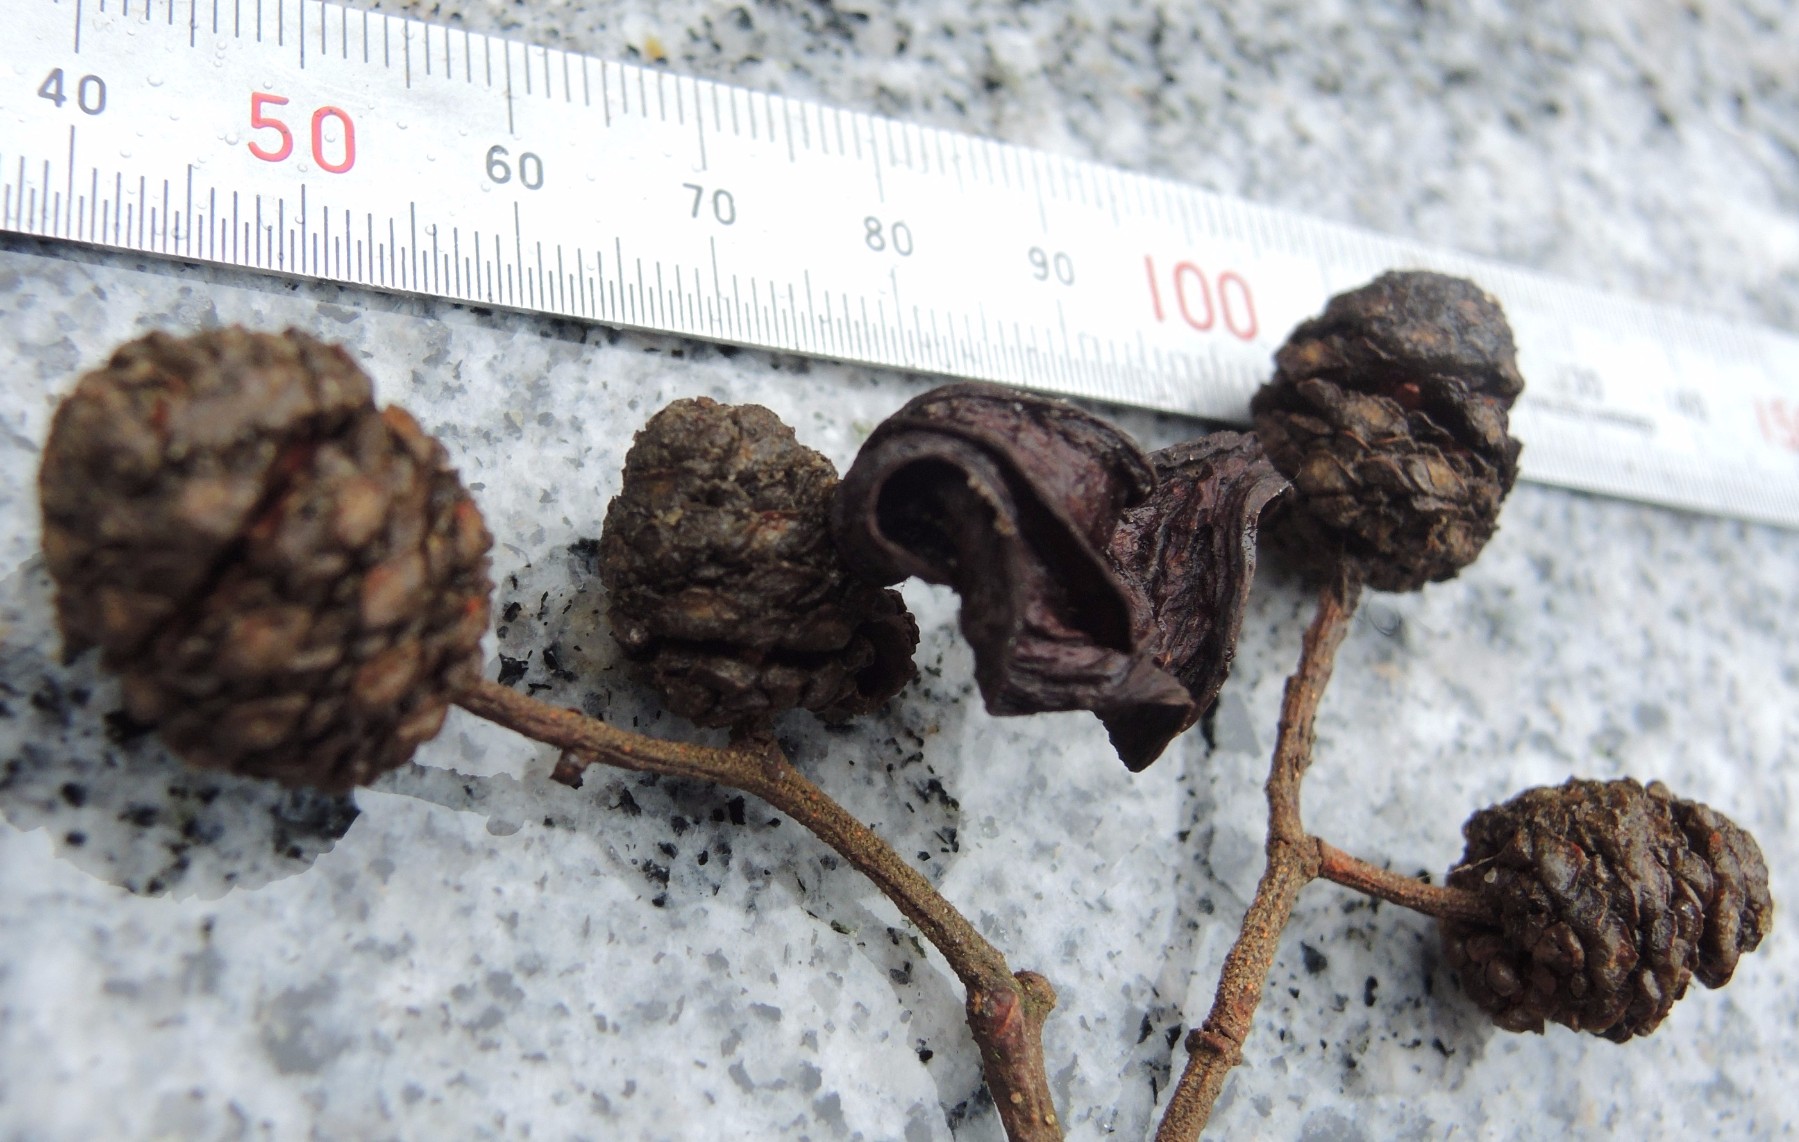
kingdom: Fungi
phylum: Ascomycota
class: Taphrinomycetes
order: Taphrinales
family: Taphrinaceae
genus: Taphrina
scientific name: Taphrina alni
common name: Alder tongue
